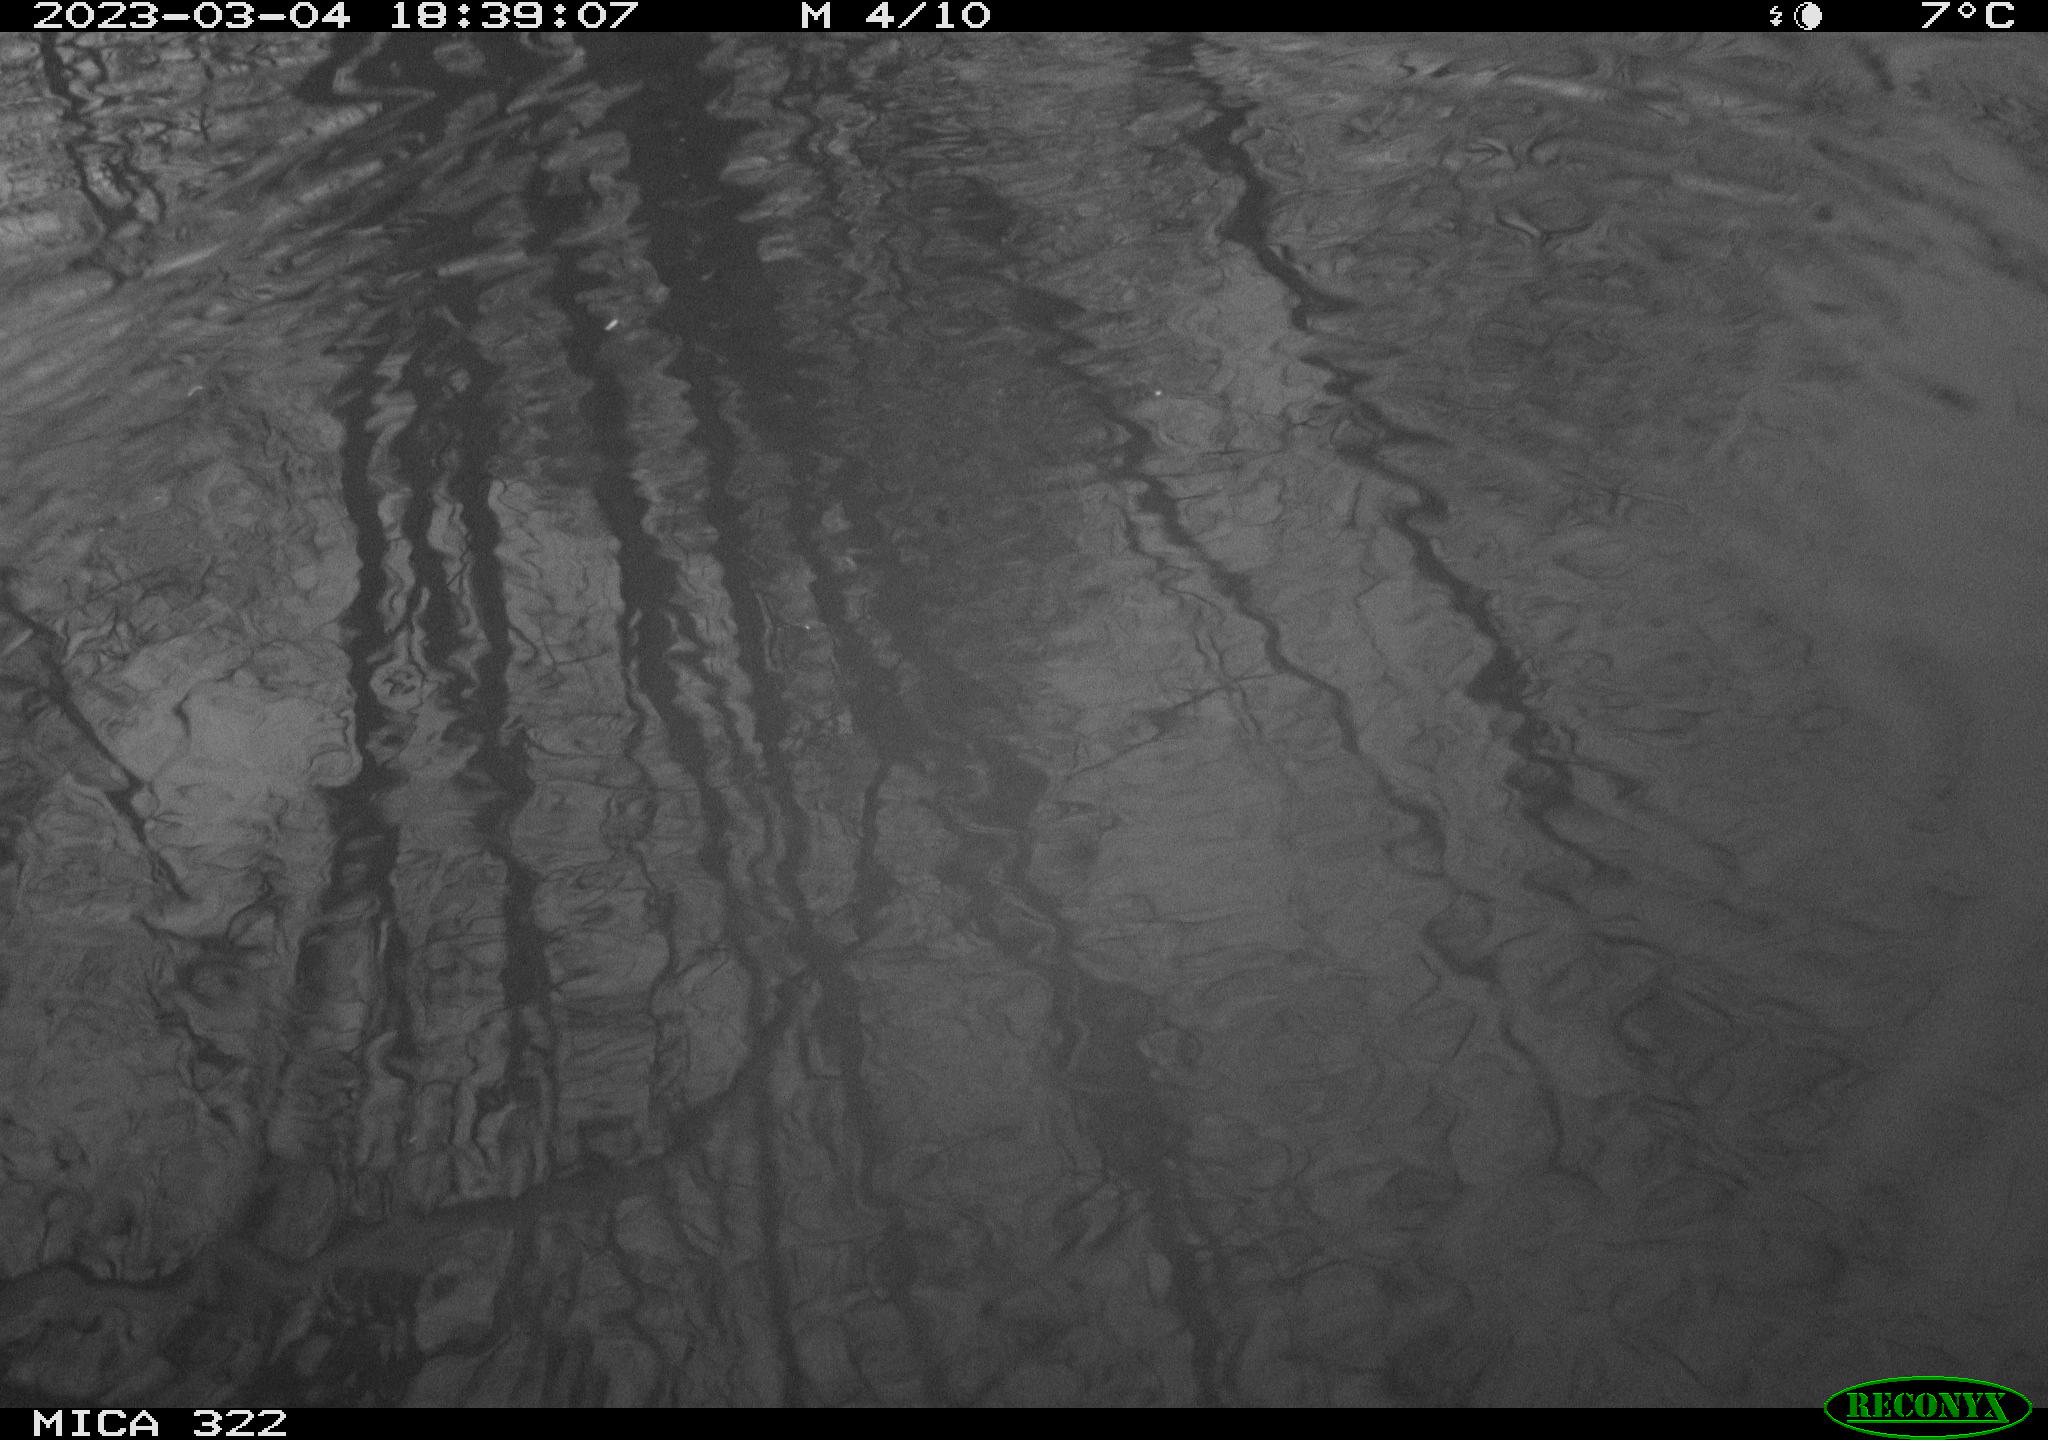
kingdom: Animalia
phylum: Chordata
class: Aves
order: Gruiformes
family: Rallidae
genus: Gallinula
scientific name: Gallinula chloropus
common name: Common moorhen
